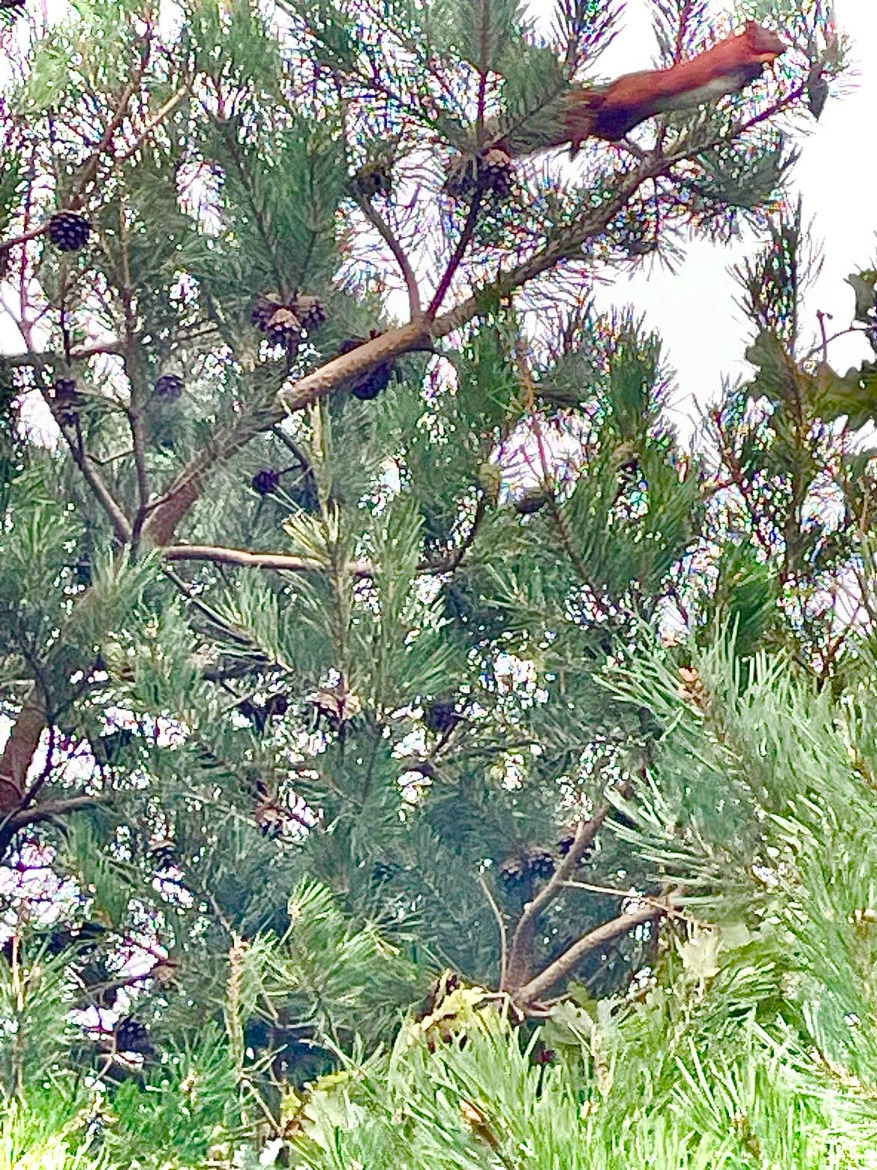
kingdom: Animalia
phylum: Chordata
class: Mammalia
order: Rodentia
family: Sciuridae
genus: Sciurus
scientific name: Sciurus vulgaris
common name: Egern
